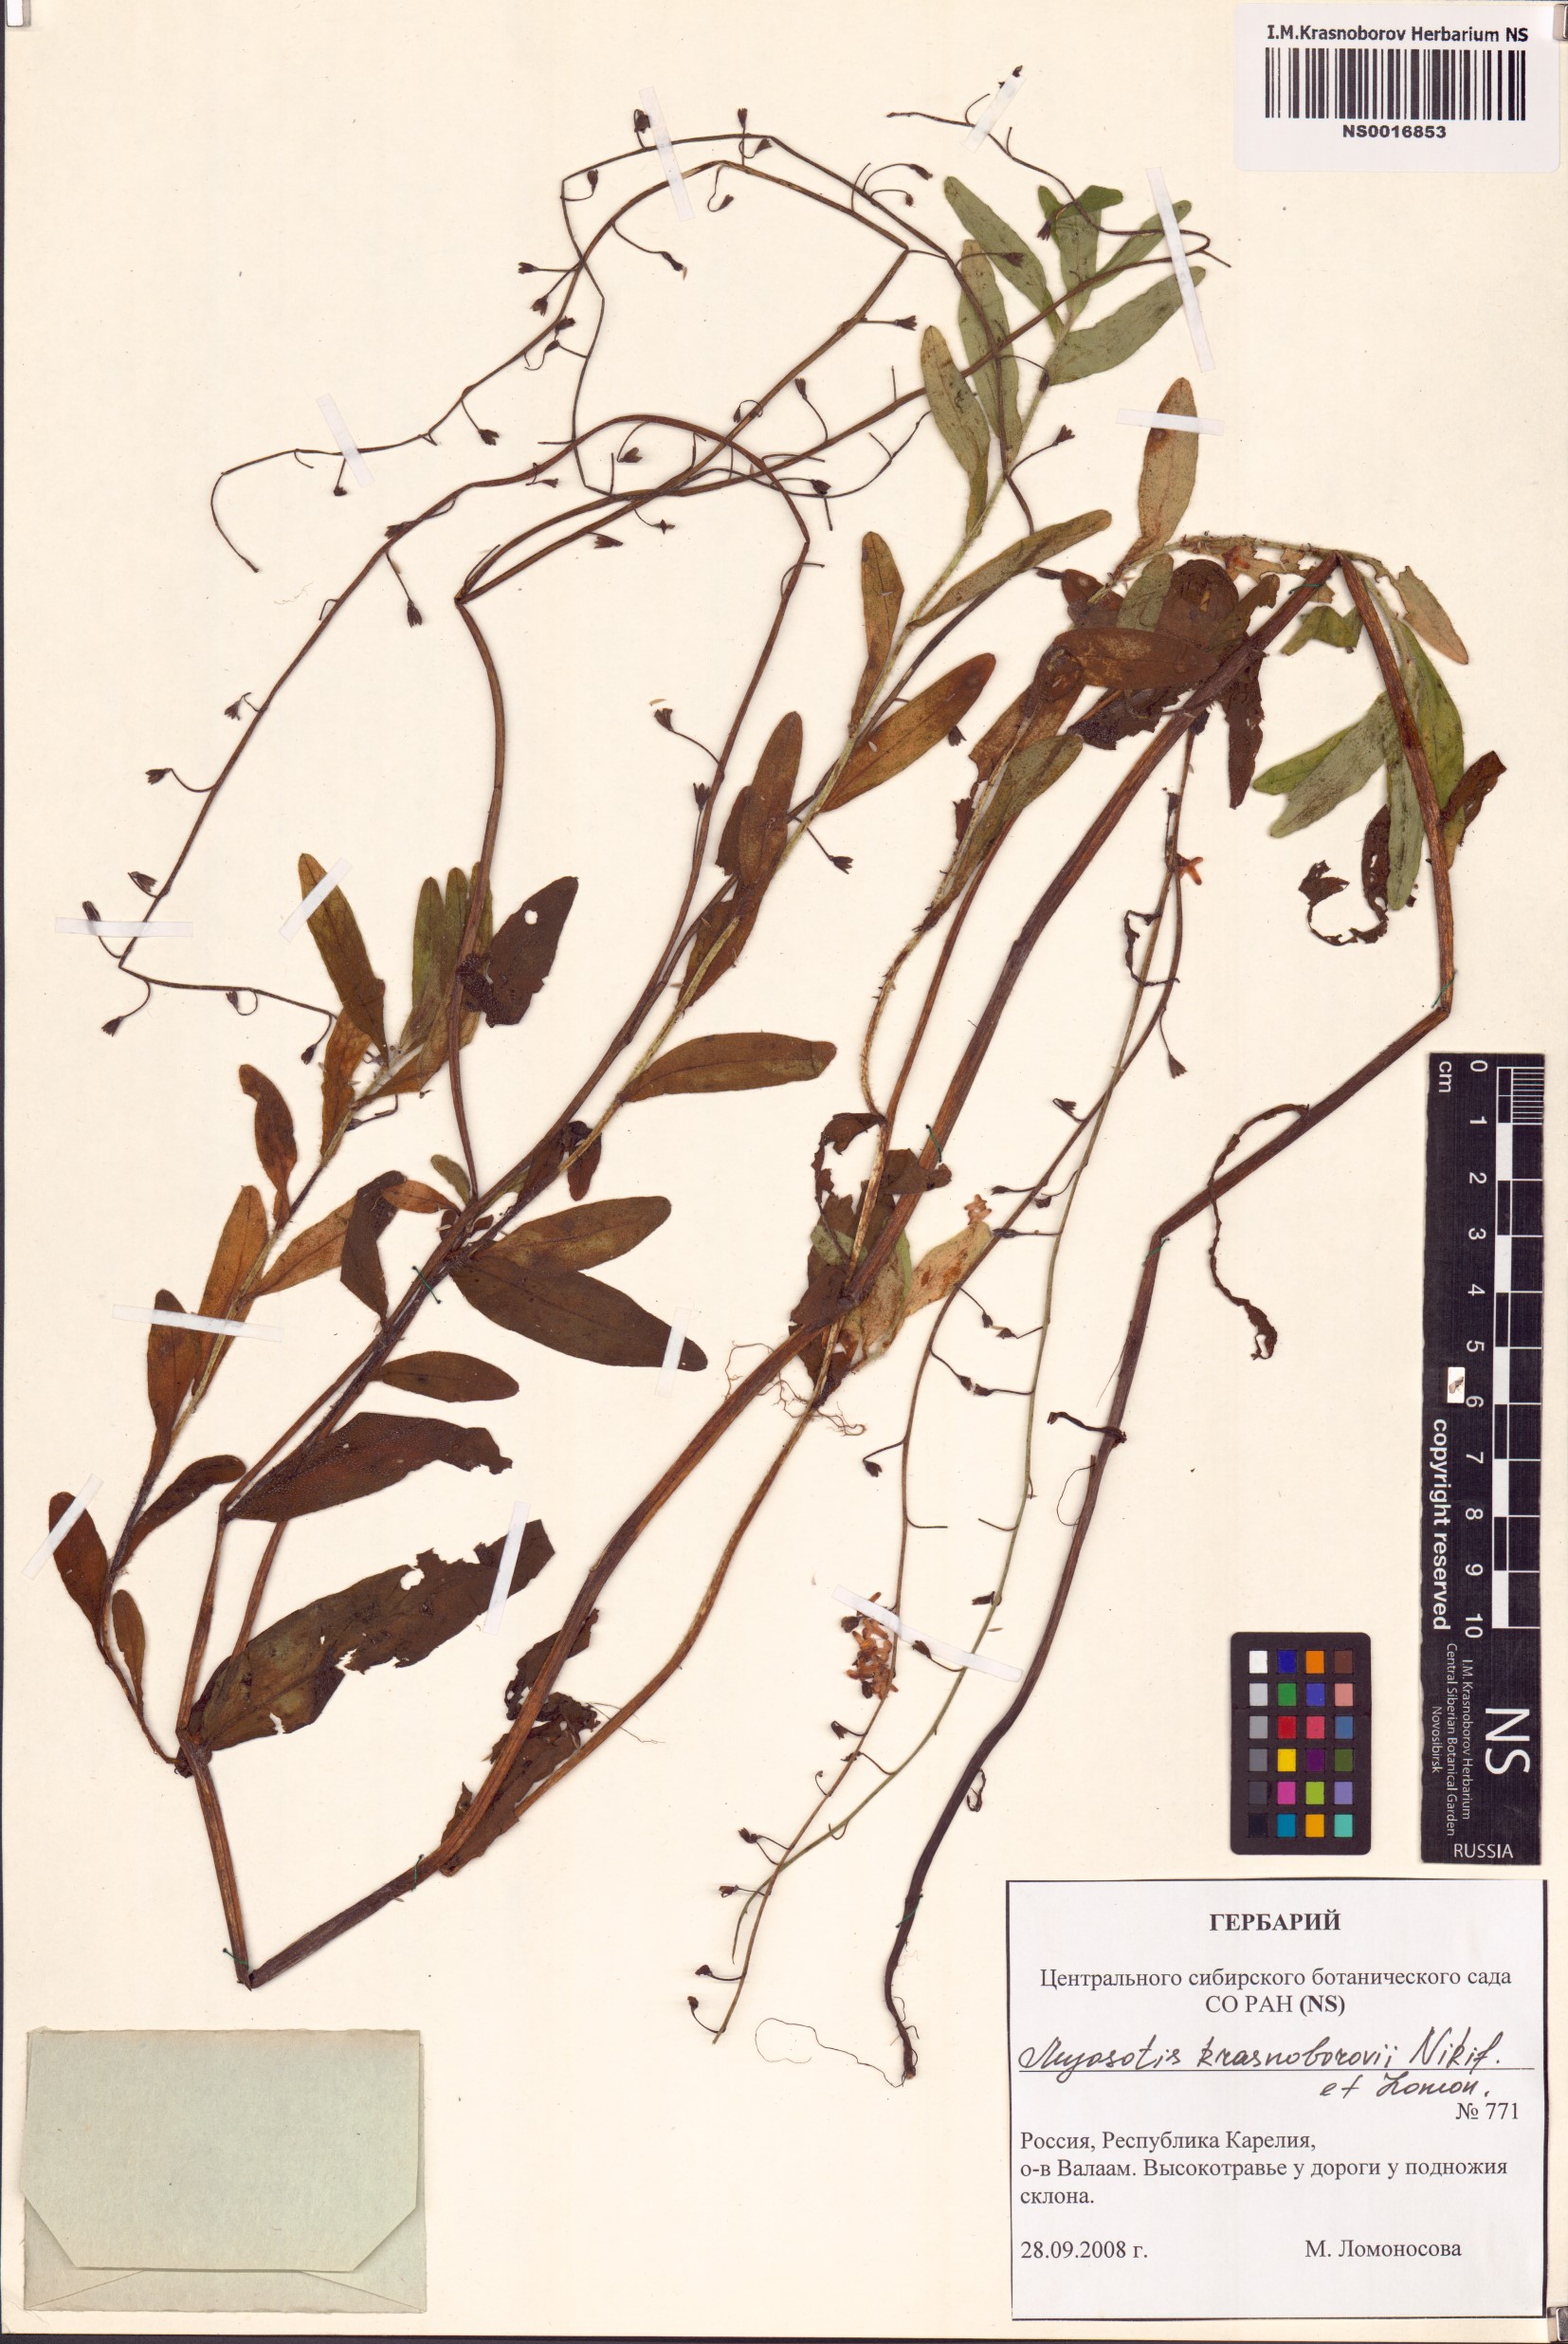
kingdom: Plantae
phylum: Tracheophyta
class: Magnoliopsida
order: Boraginales
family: Boraginaceae
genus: Myosotis
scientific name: Myosotis krasnoborovii
